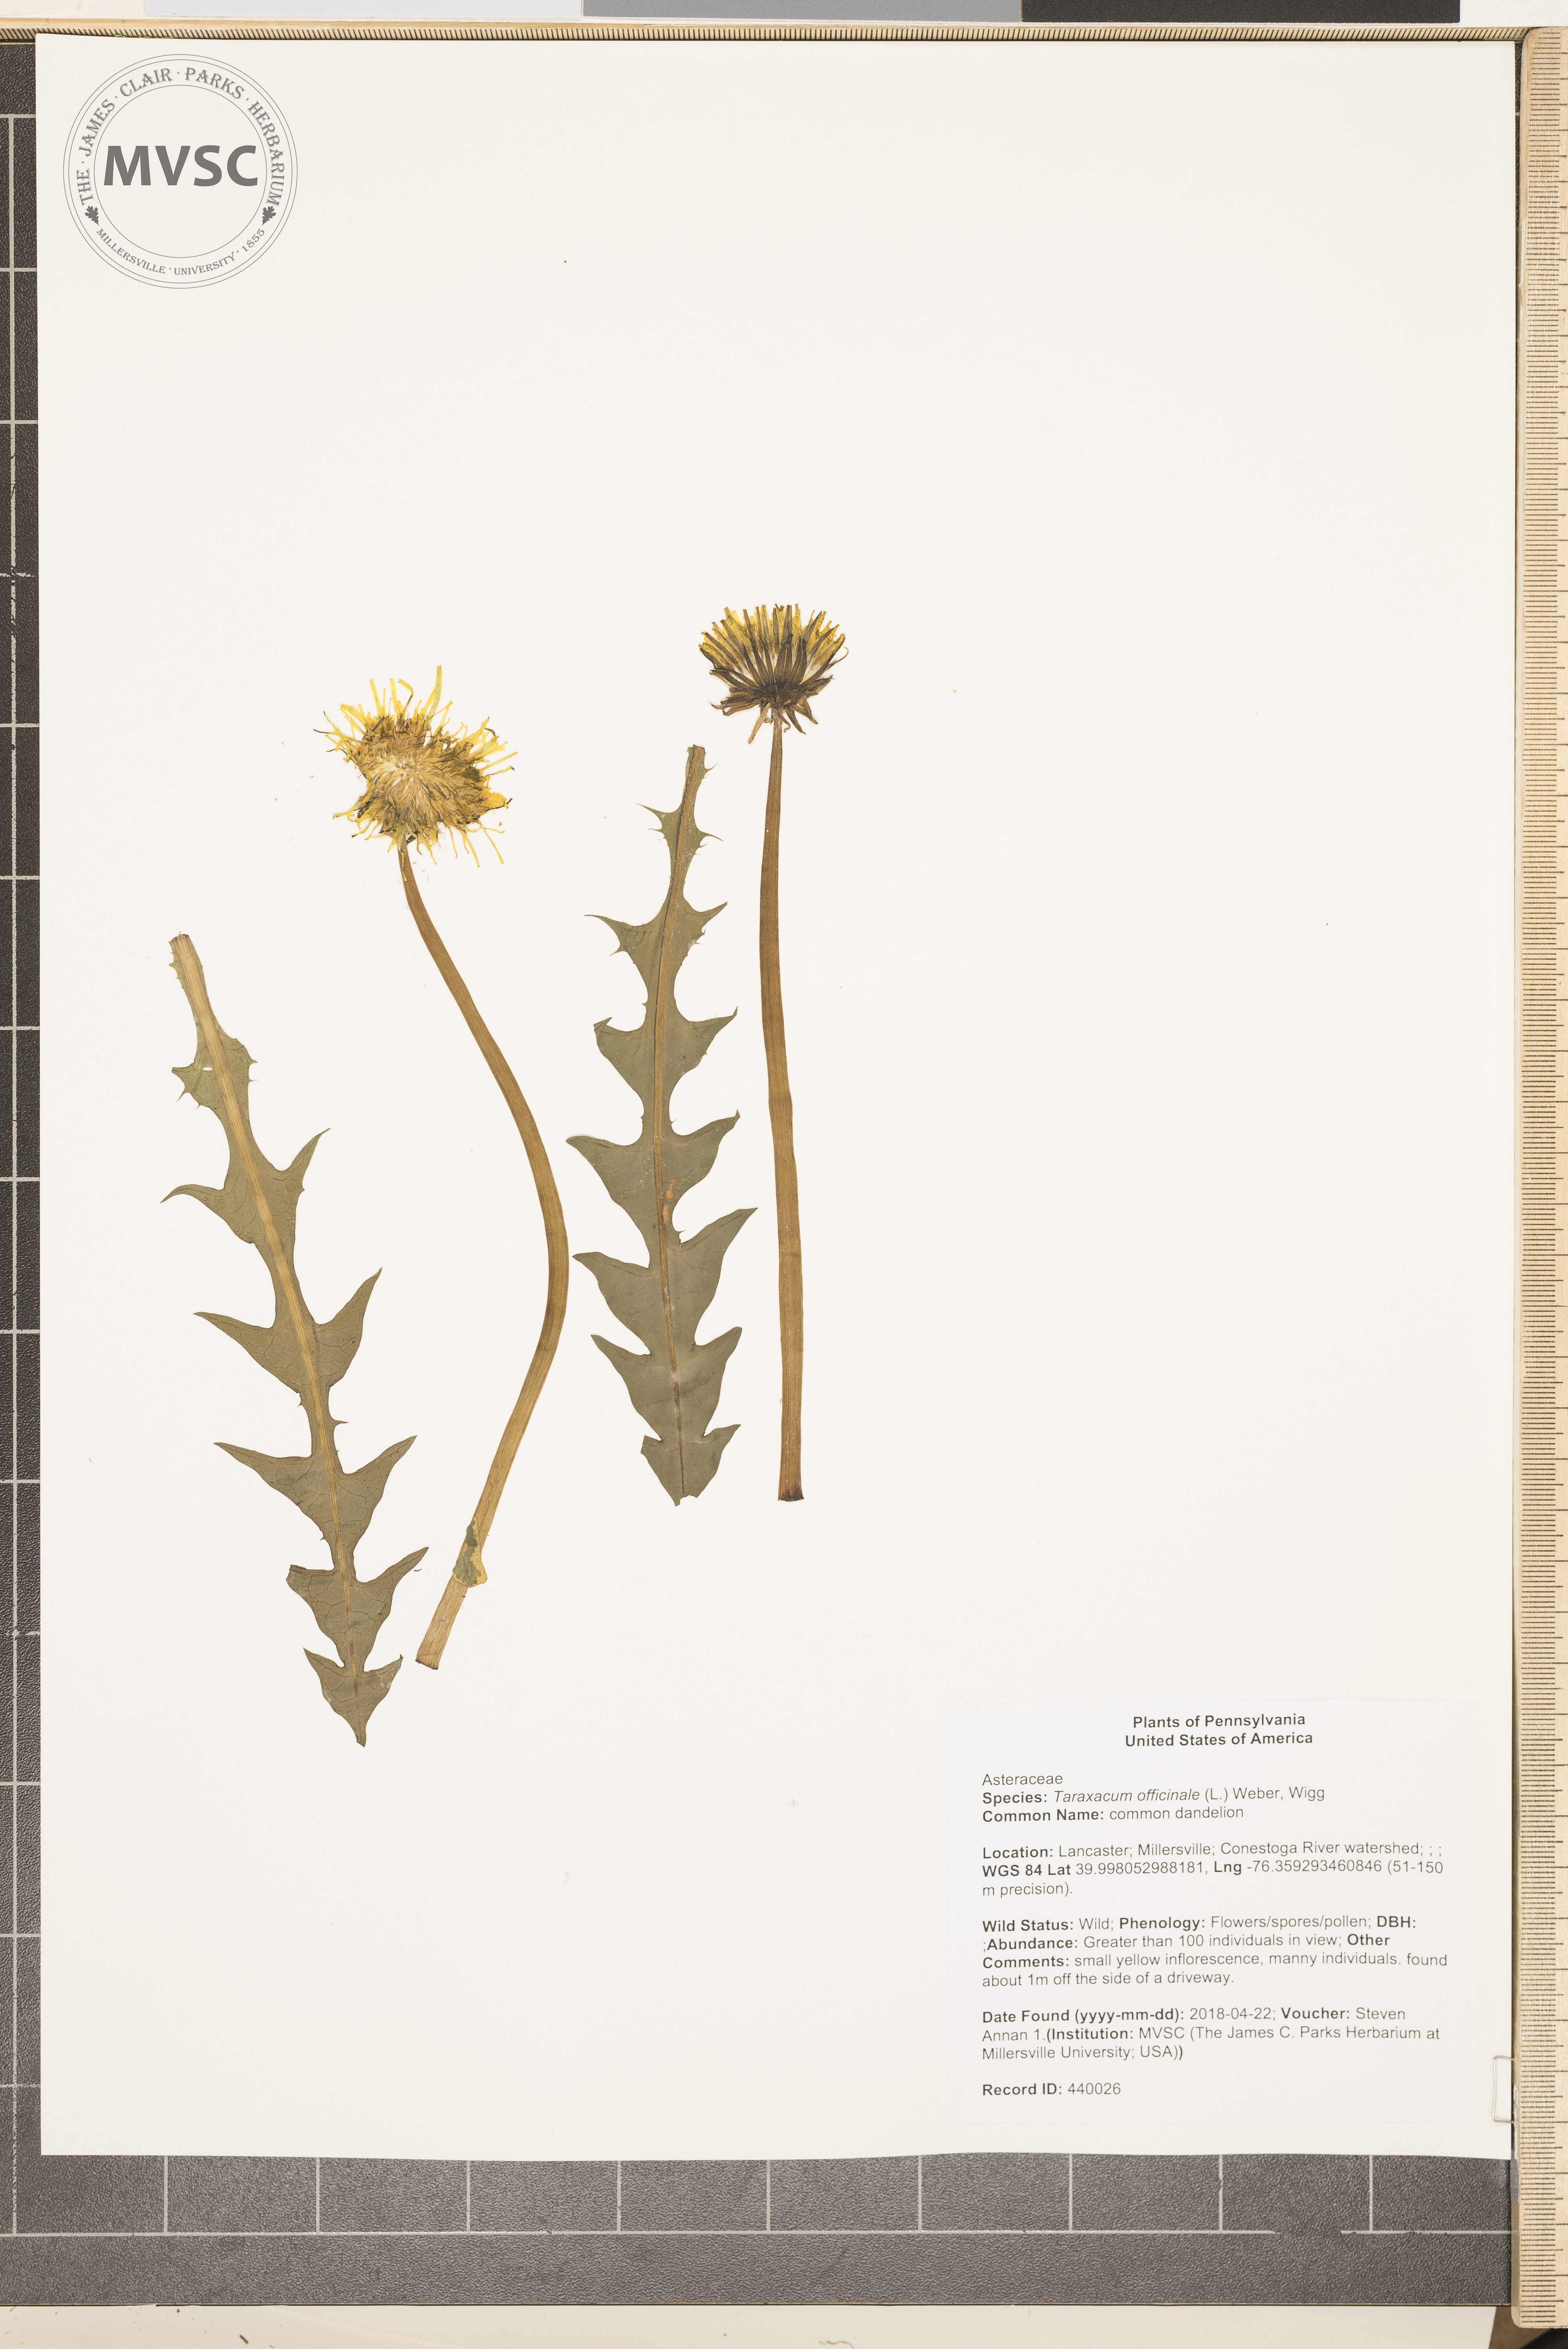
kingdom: Plantae
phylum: Tracheophyta
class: Magnoliopsida
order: Asterales
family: Asteraceae
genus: Taraxacum
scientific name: Taraxacum officinale
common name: common dandelion
